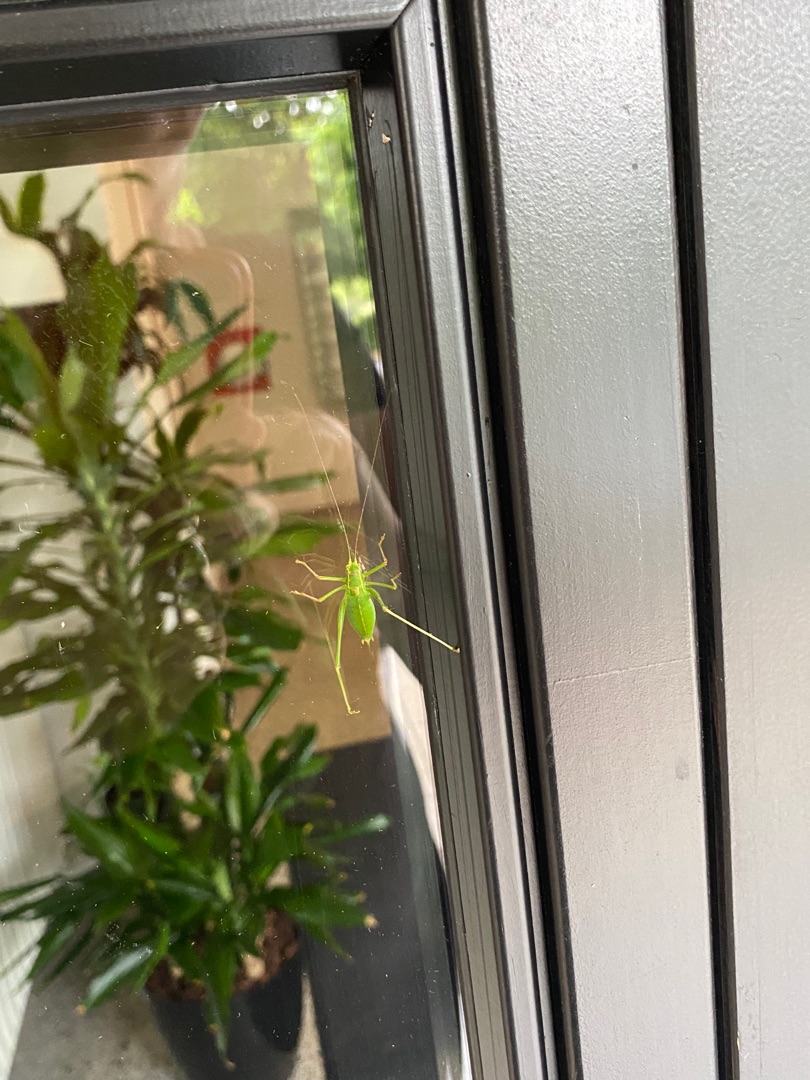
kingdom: Animalia
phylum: Arthropoda
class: Insecta
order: Orthoptera
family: Tettigoniidae
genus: Leptophyes
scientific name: Leptophyes punctatissima
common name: Krumknivgræshoppe
